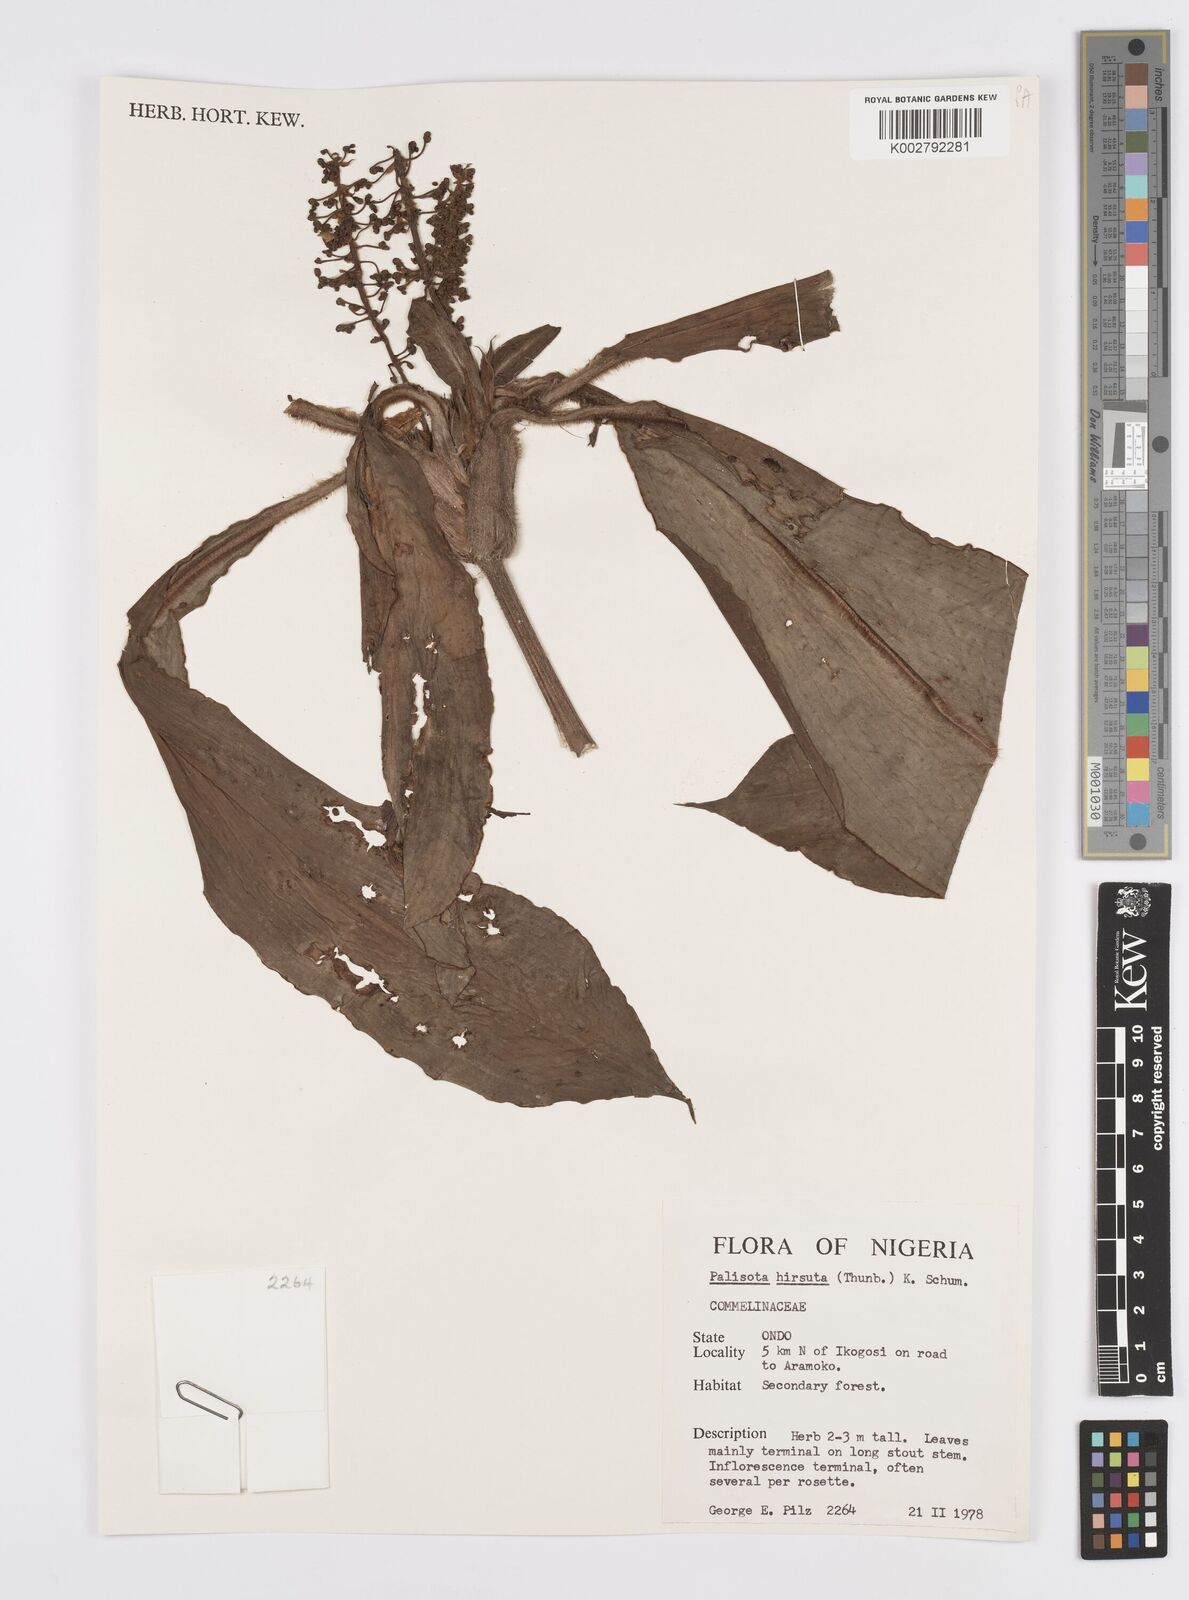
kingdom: Plantae
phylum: Tracheophyta
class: Liliopsida
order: Commelinales
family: Commelinaceae
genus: Palisota
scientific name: Palisota hirsuta
